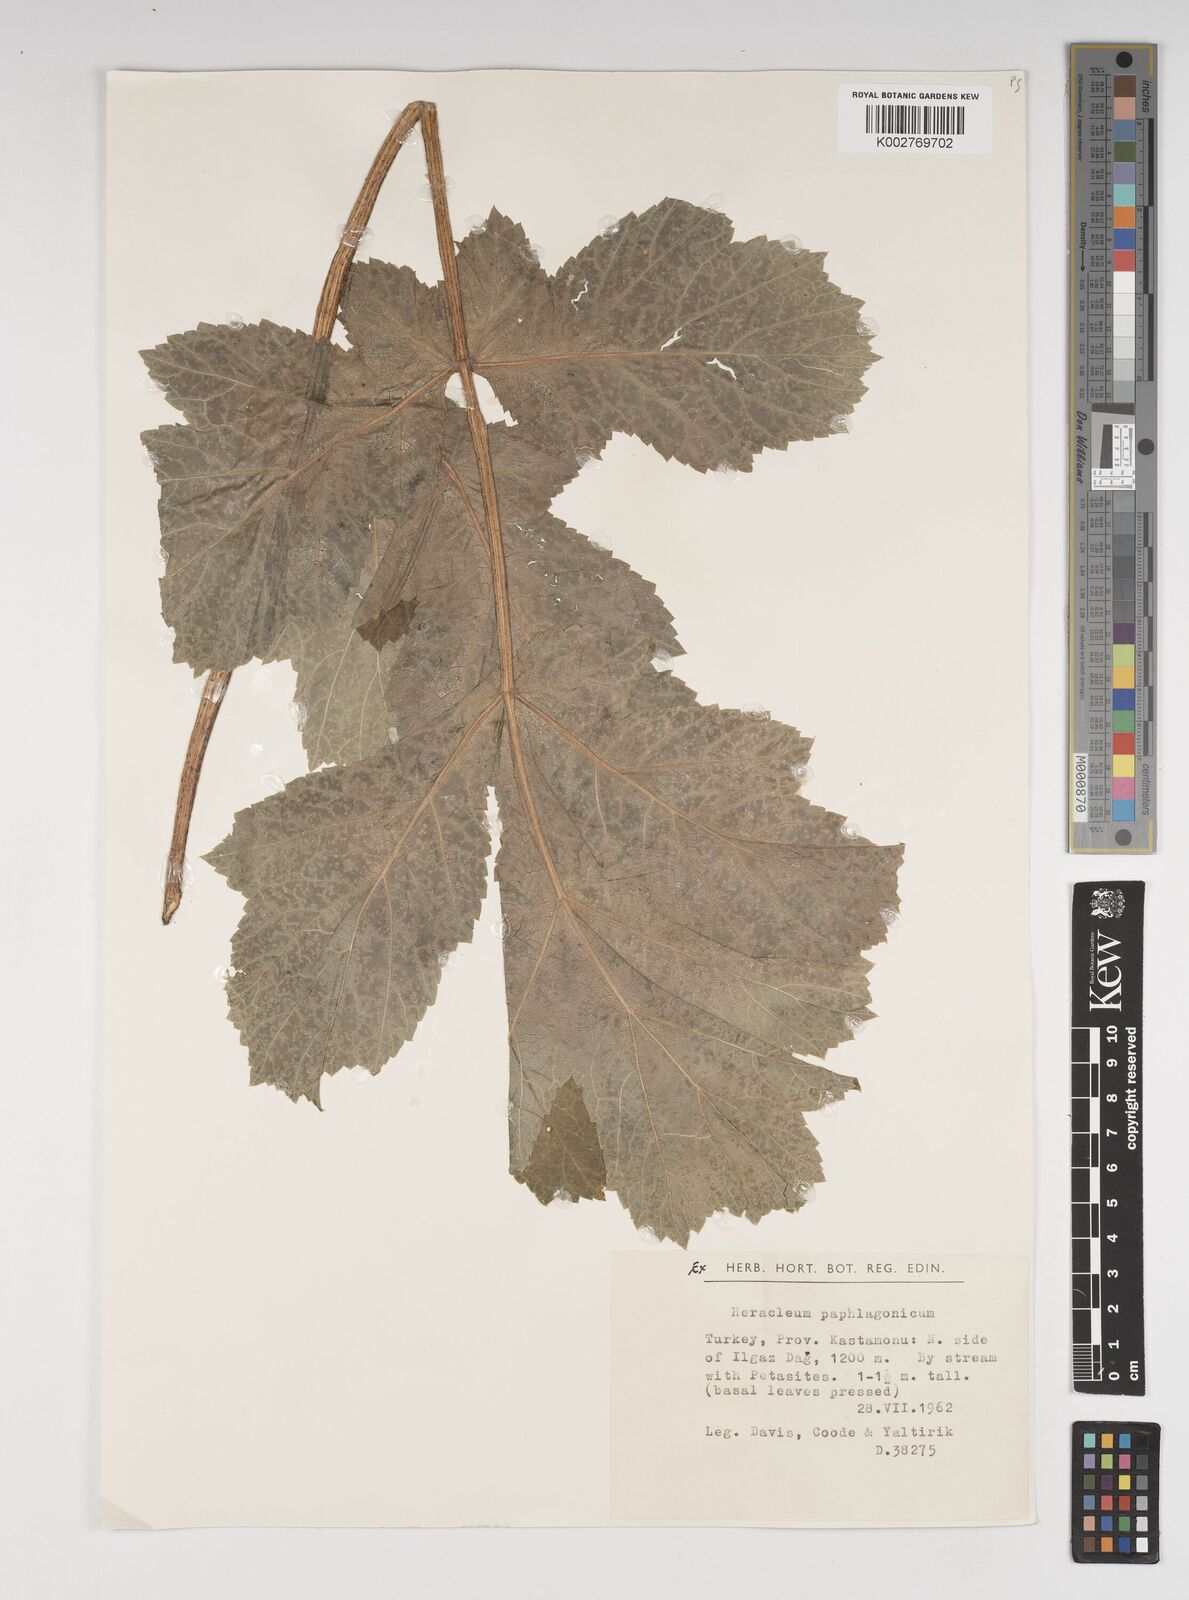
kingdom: Plantae
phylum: Tracheophyta
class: Magnoliopsida
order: Apiales
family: Apiaceae
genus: Heracleum
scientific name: Heracleum paphlagonicum
